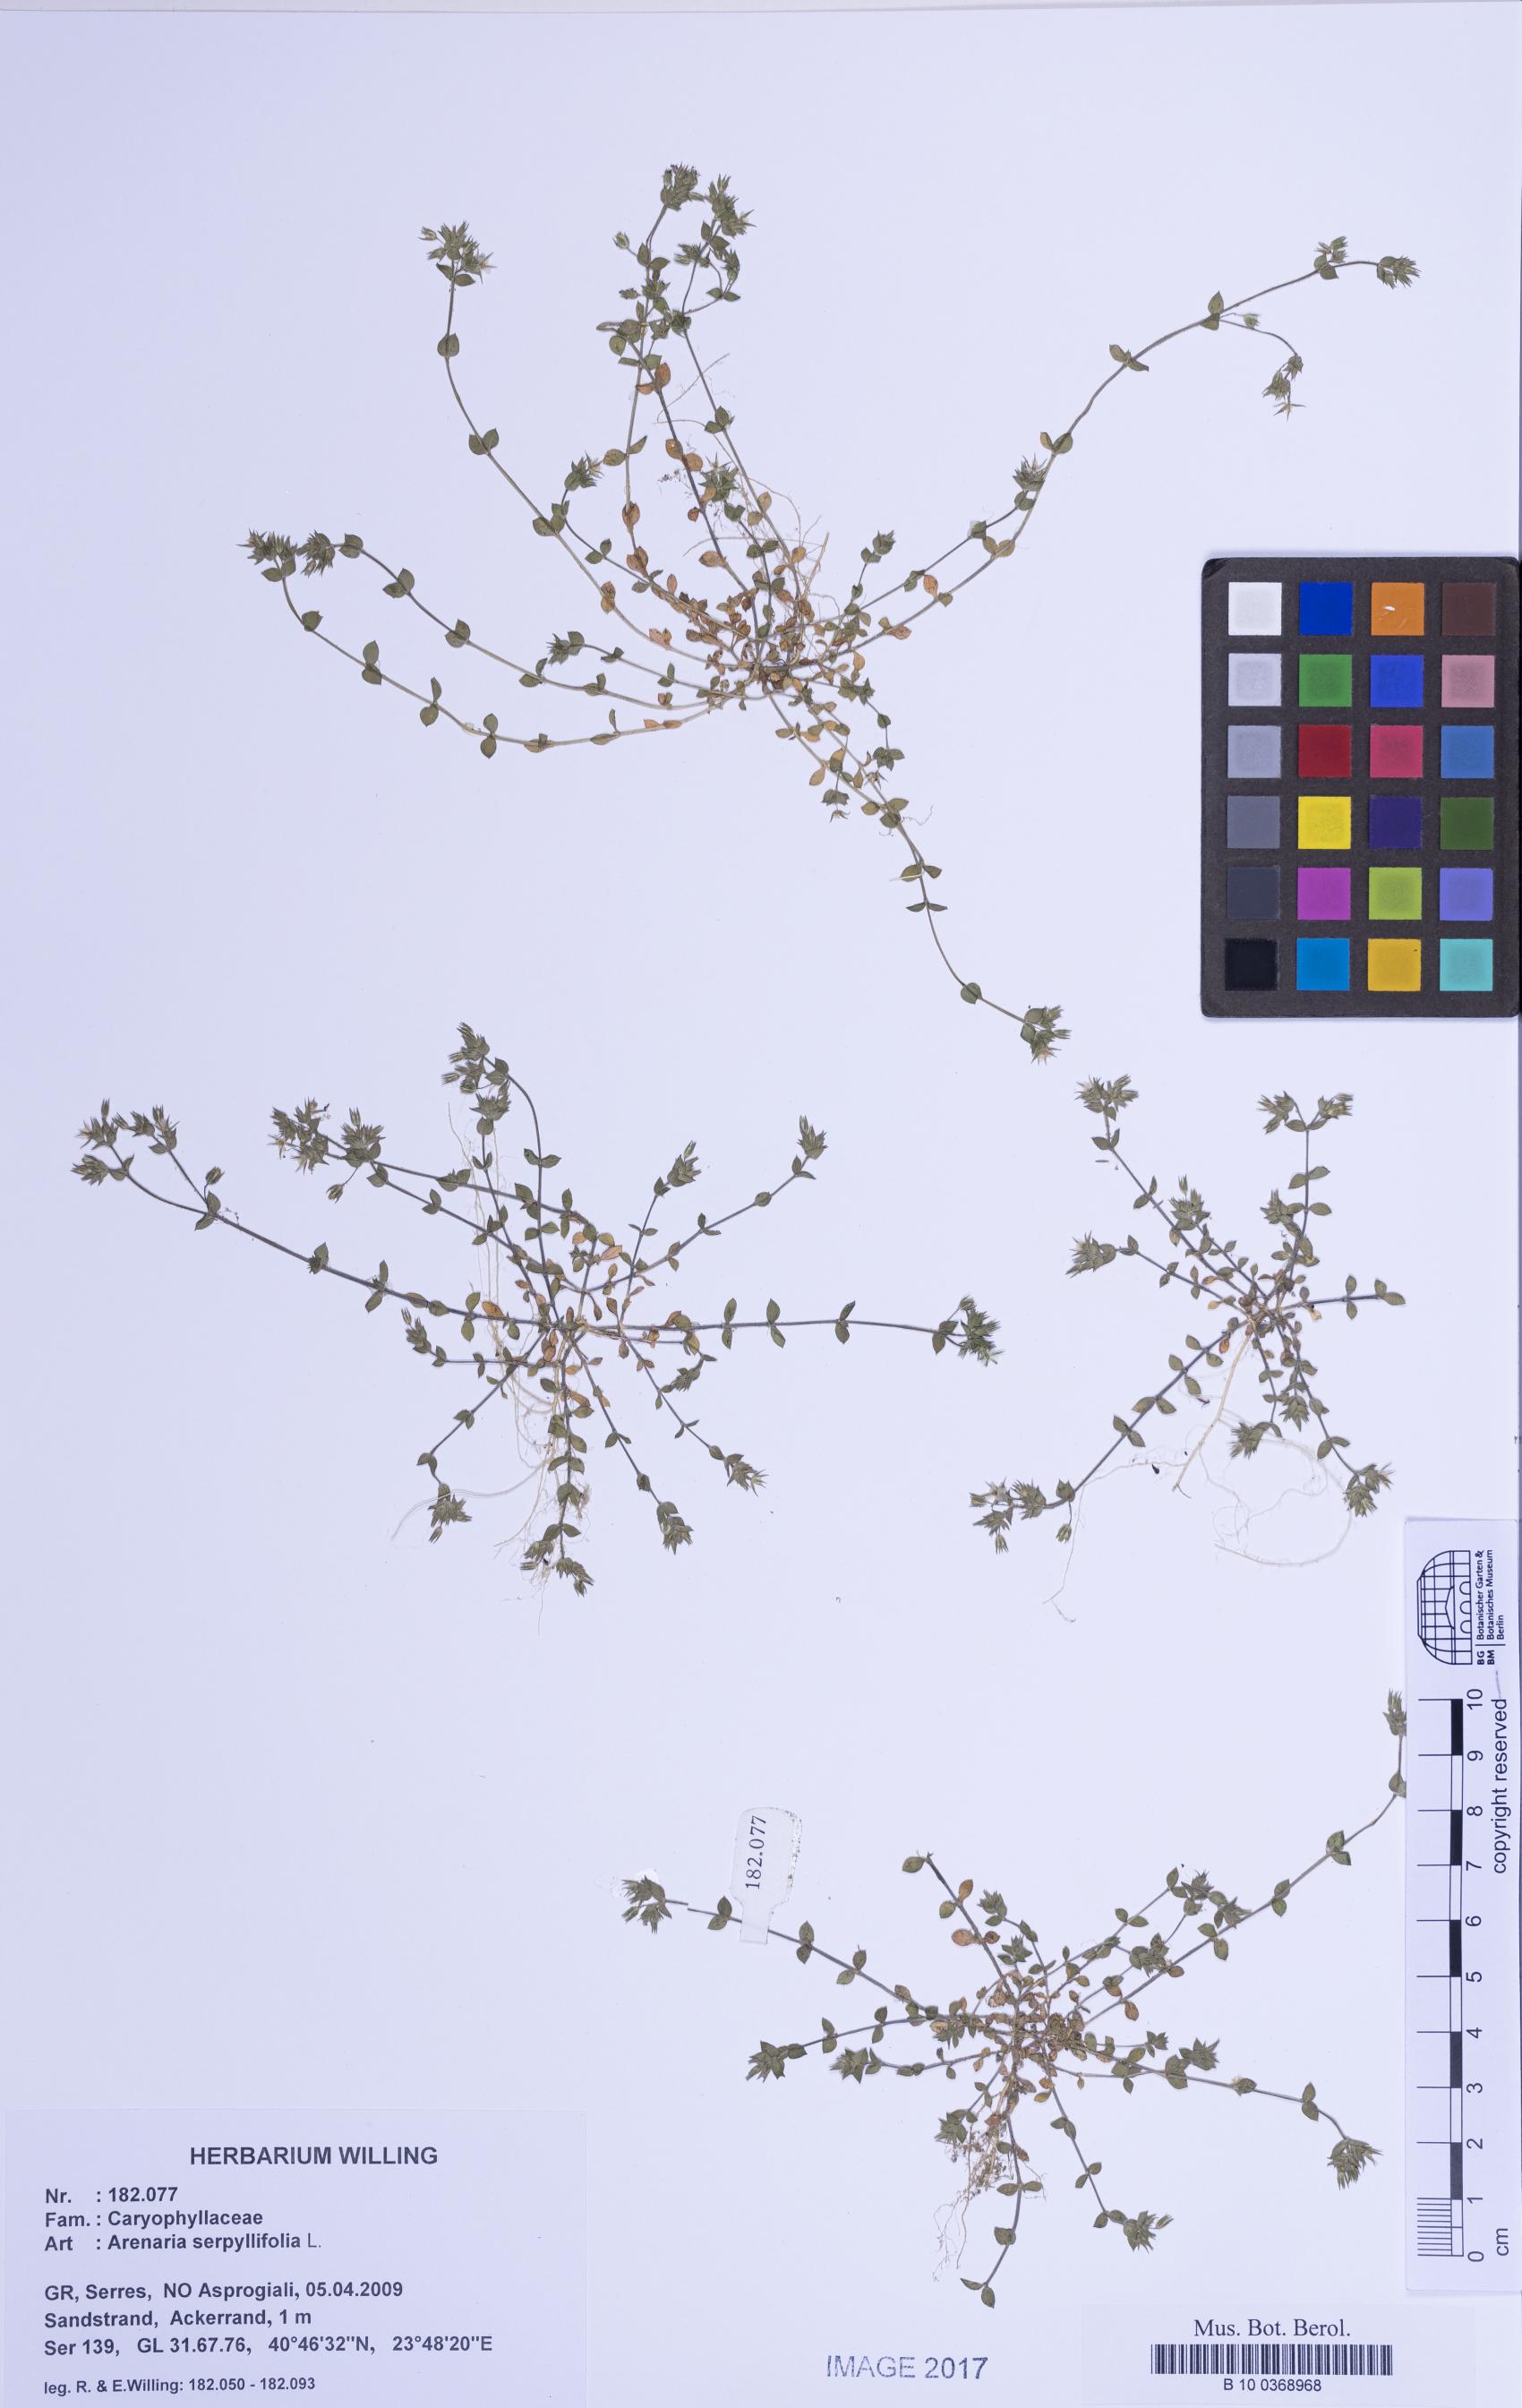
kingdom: Plantae
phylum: Tracheophyta
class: Magnoliopsida
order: Caryophyllales
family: Caryophyllaceae
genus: Arenaria
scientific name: Arenaria serpyllifolia
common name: Thyme-leaved sandwort
